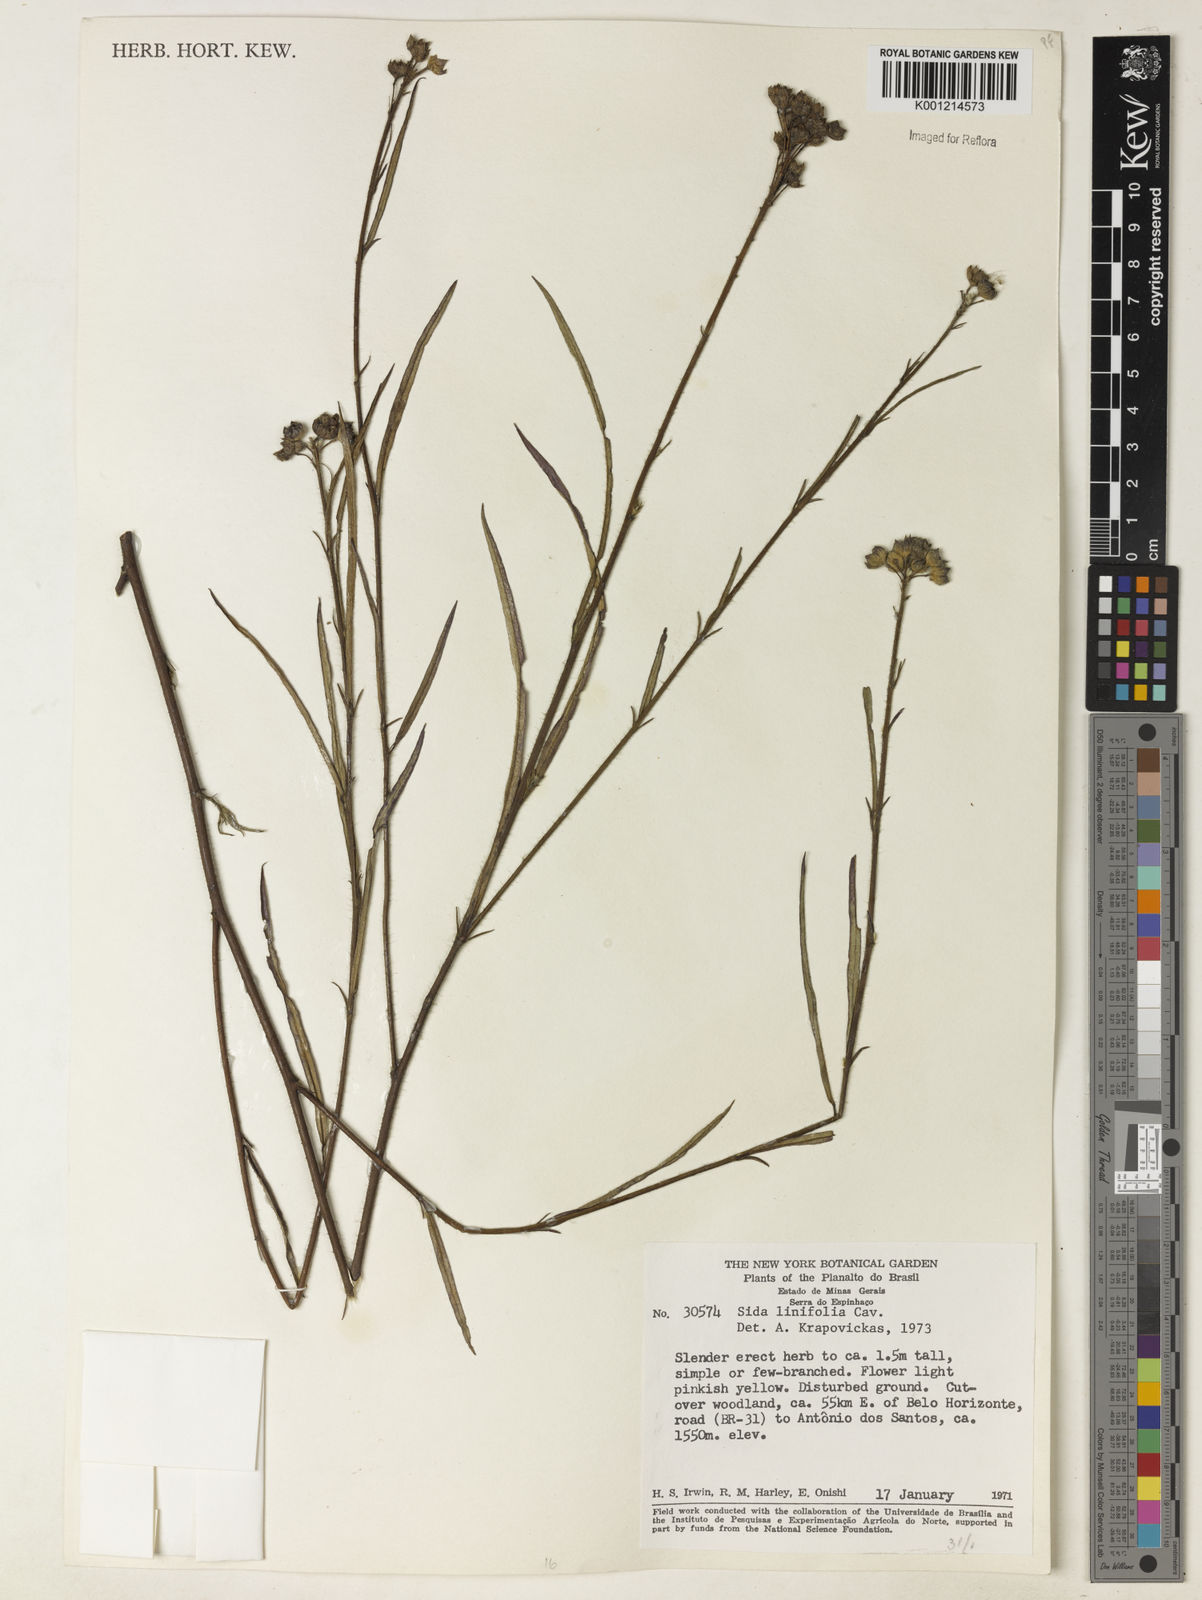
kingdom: Plantae
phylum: Tracheophyta
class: Magnoliopsida
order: Malvales
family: Malvaceae
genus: Sida
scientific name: Sida linifolia
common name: Flaxleaf fanpetals
